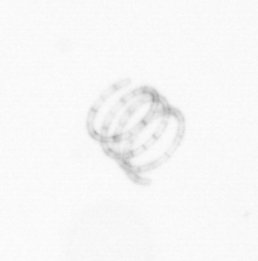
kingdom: Chromista
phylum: Ochrophyta
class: Bacillariophyceae
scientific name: Bacillariophyceae
